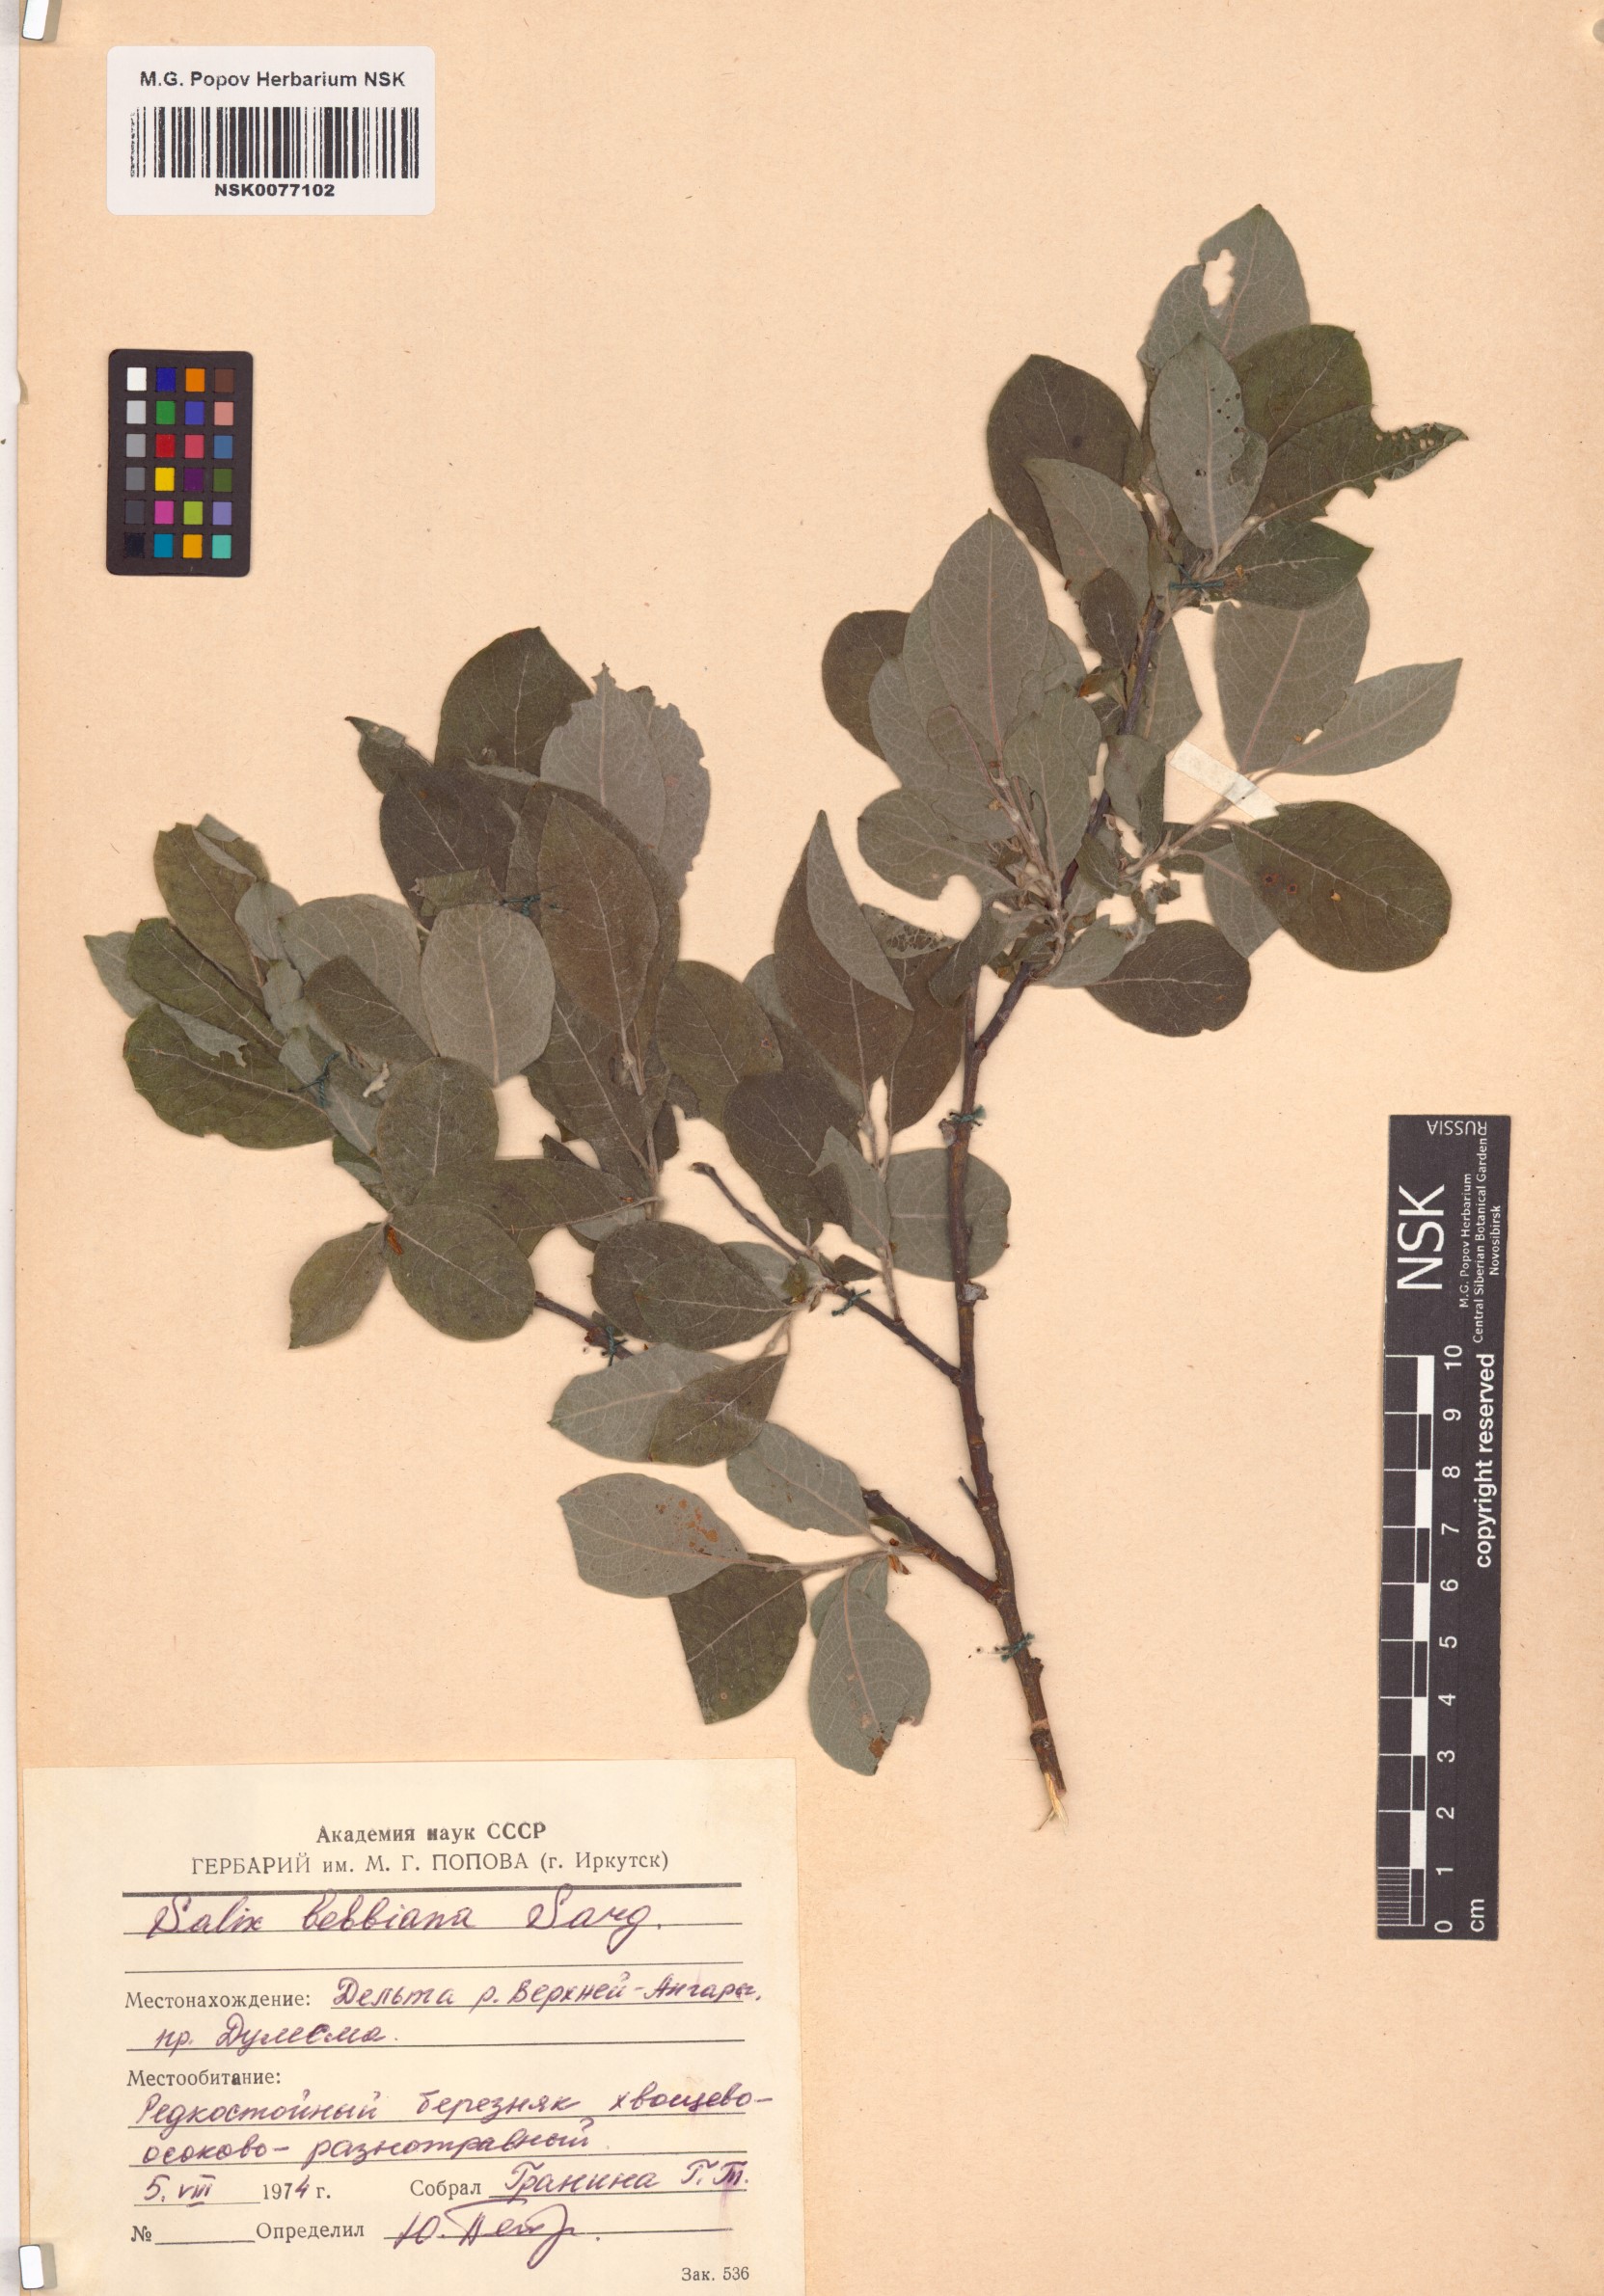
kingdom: Plantae
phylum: Tracheophyta
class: Magnoliopsida
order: Malpighiales
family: Salicaceae
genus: Salix
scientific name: Salix bebbiana
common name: Bebb's willow
